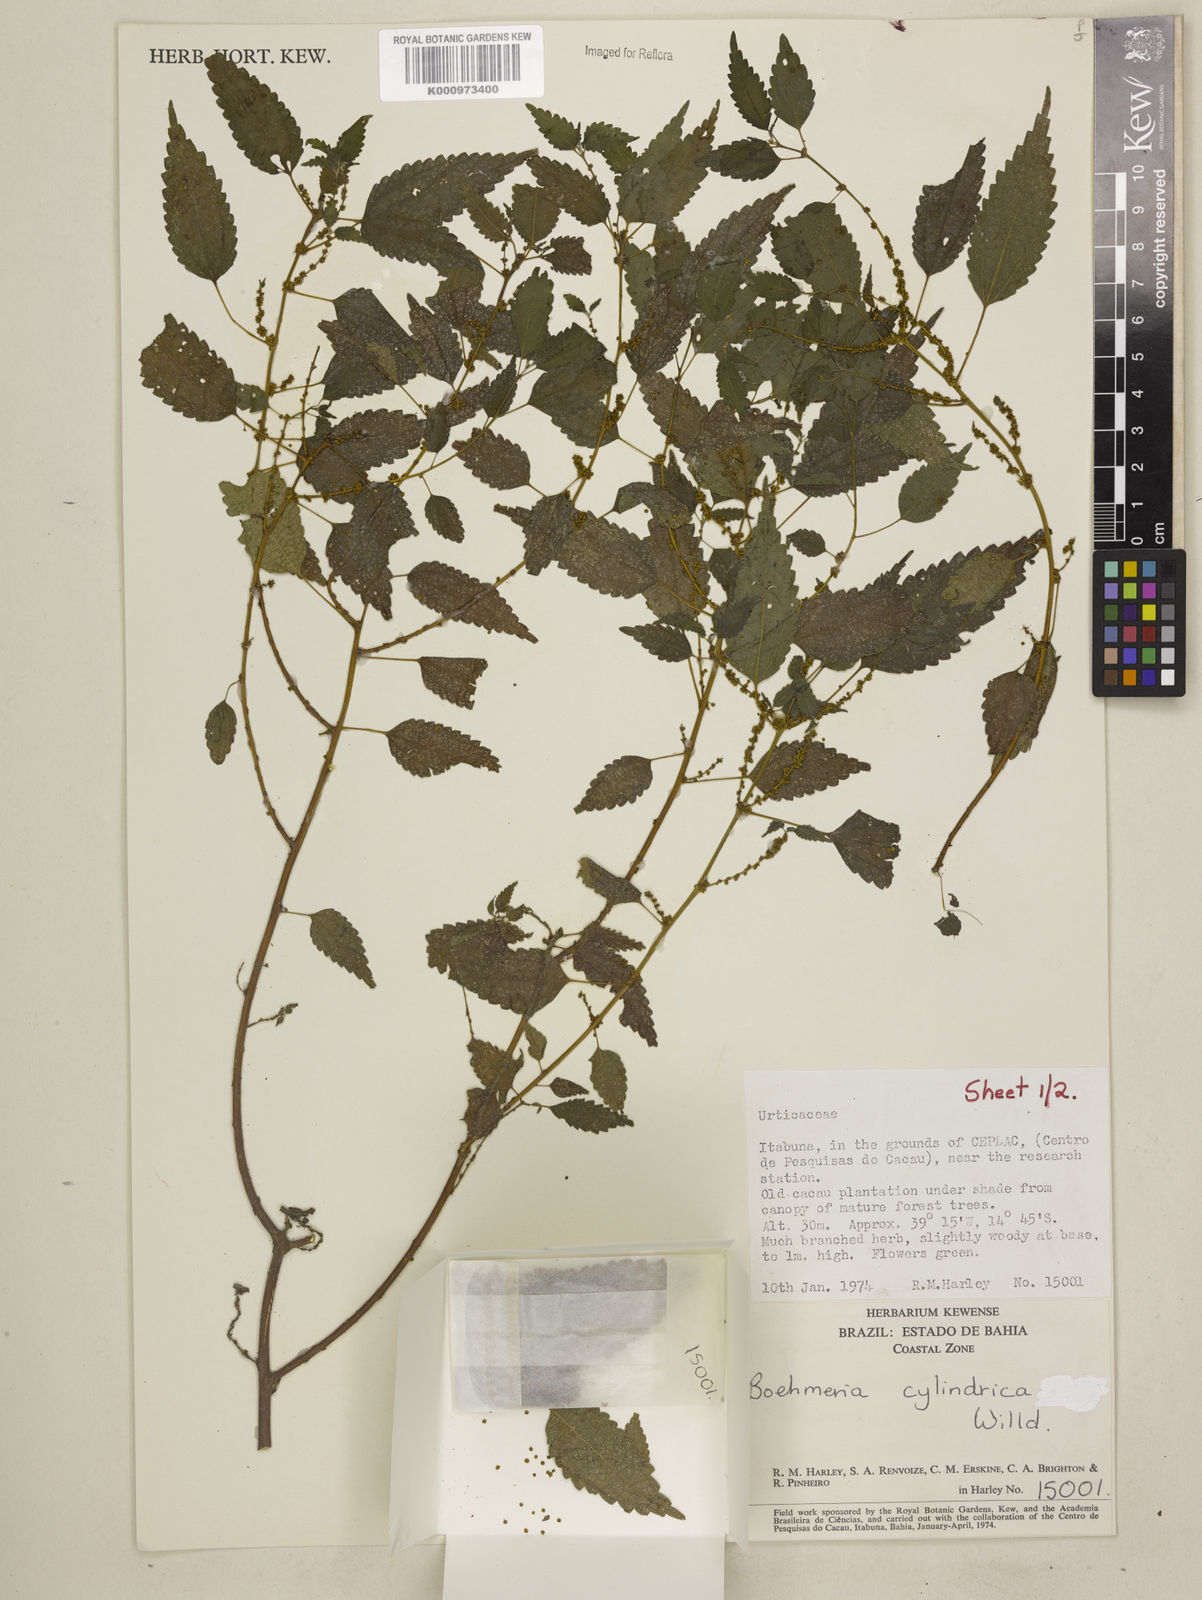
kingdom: Plantae
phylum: Tracheophyta
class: Magnoliopsida
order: Rosales
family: Urticaceae
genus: Boehmeria
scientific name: Boehmeria cylindrica
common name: Bog-hemp
